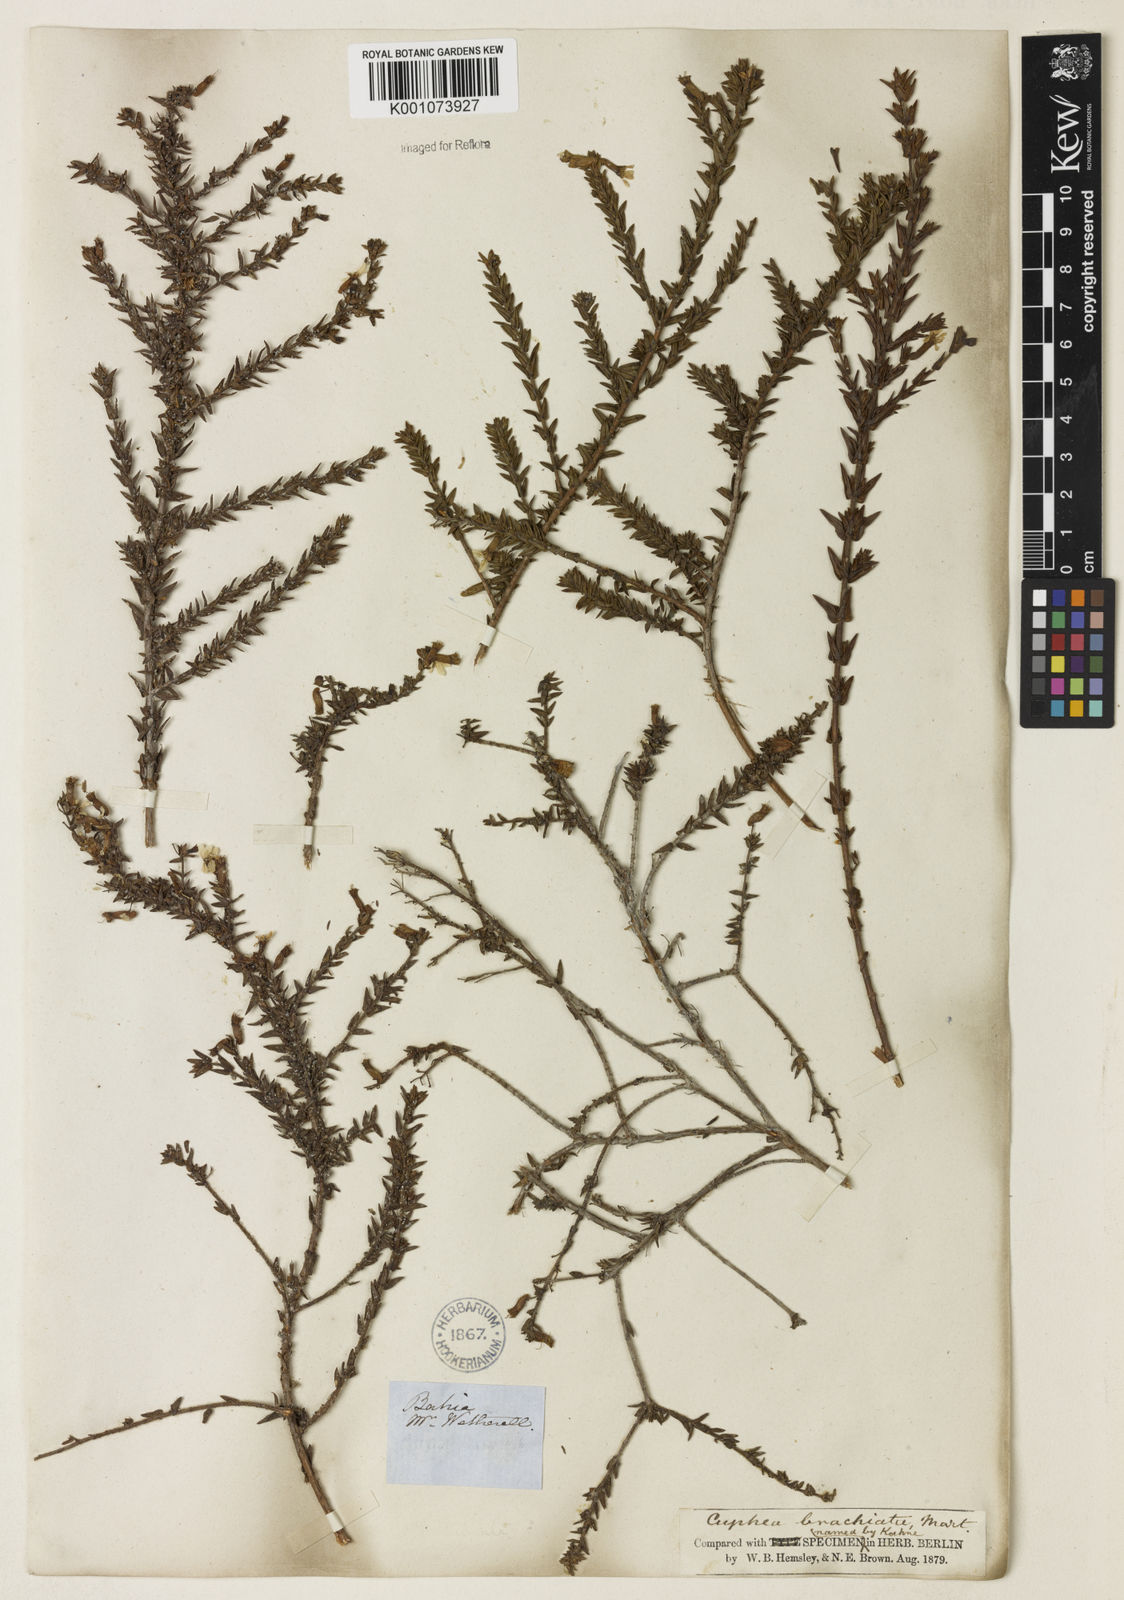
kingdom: Plantae
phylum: Tracheophyta
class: Magnoliopsida
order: Myrtales
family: Lythraceae
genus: Cuphea
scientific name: Cuphea brachiata
